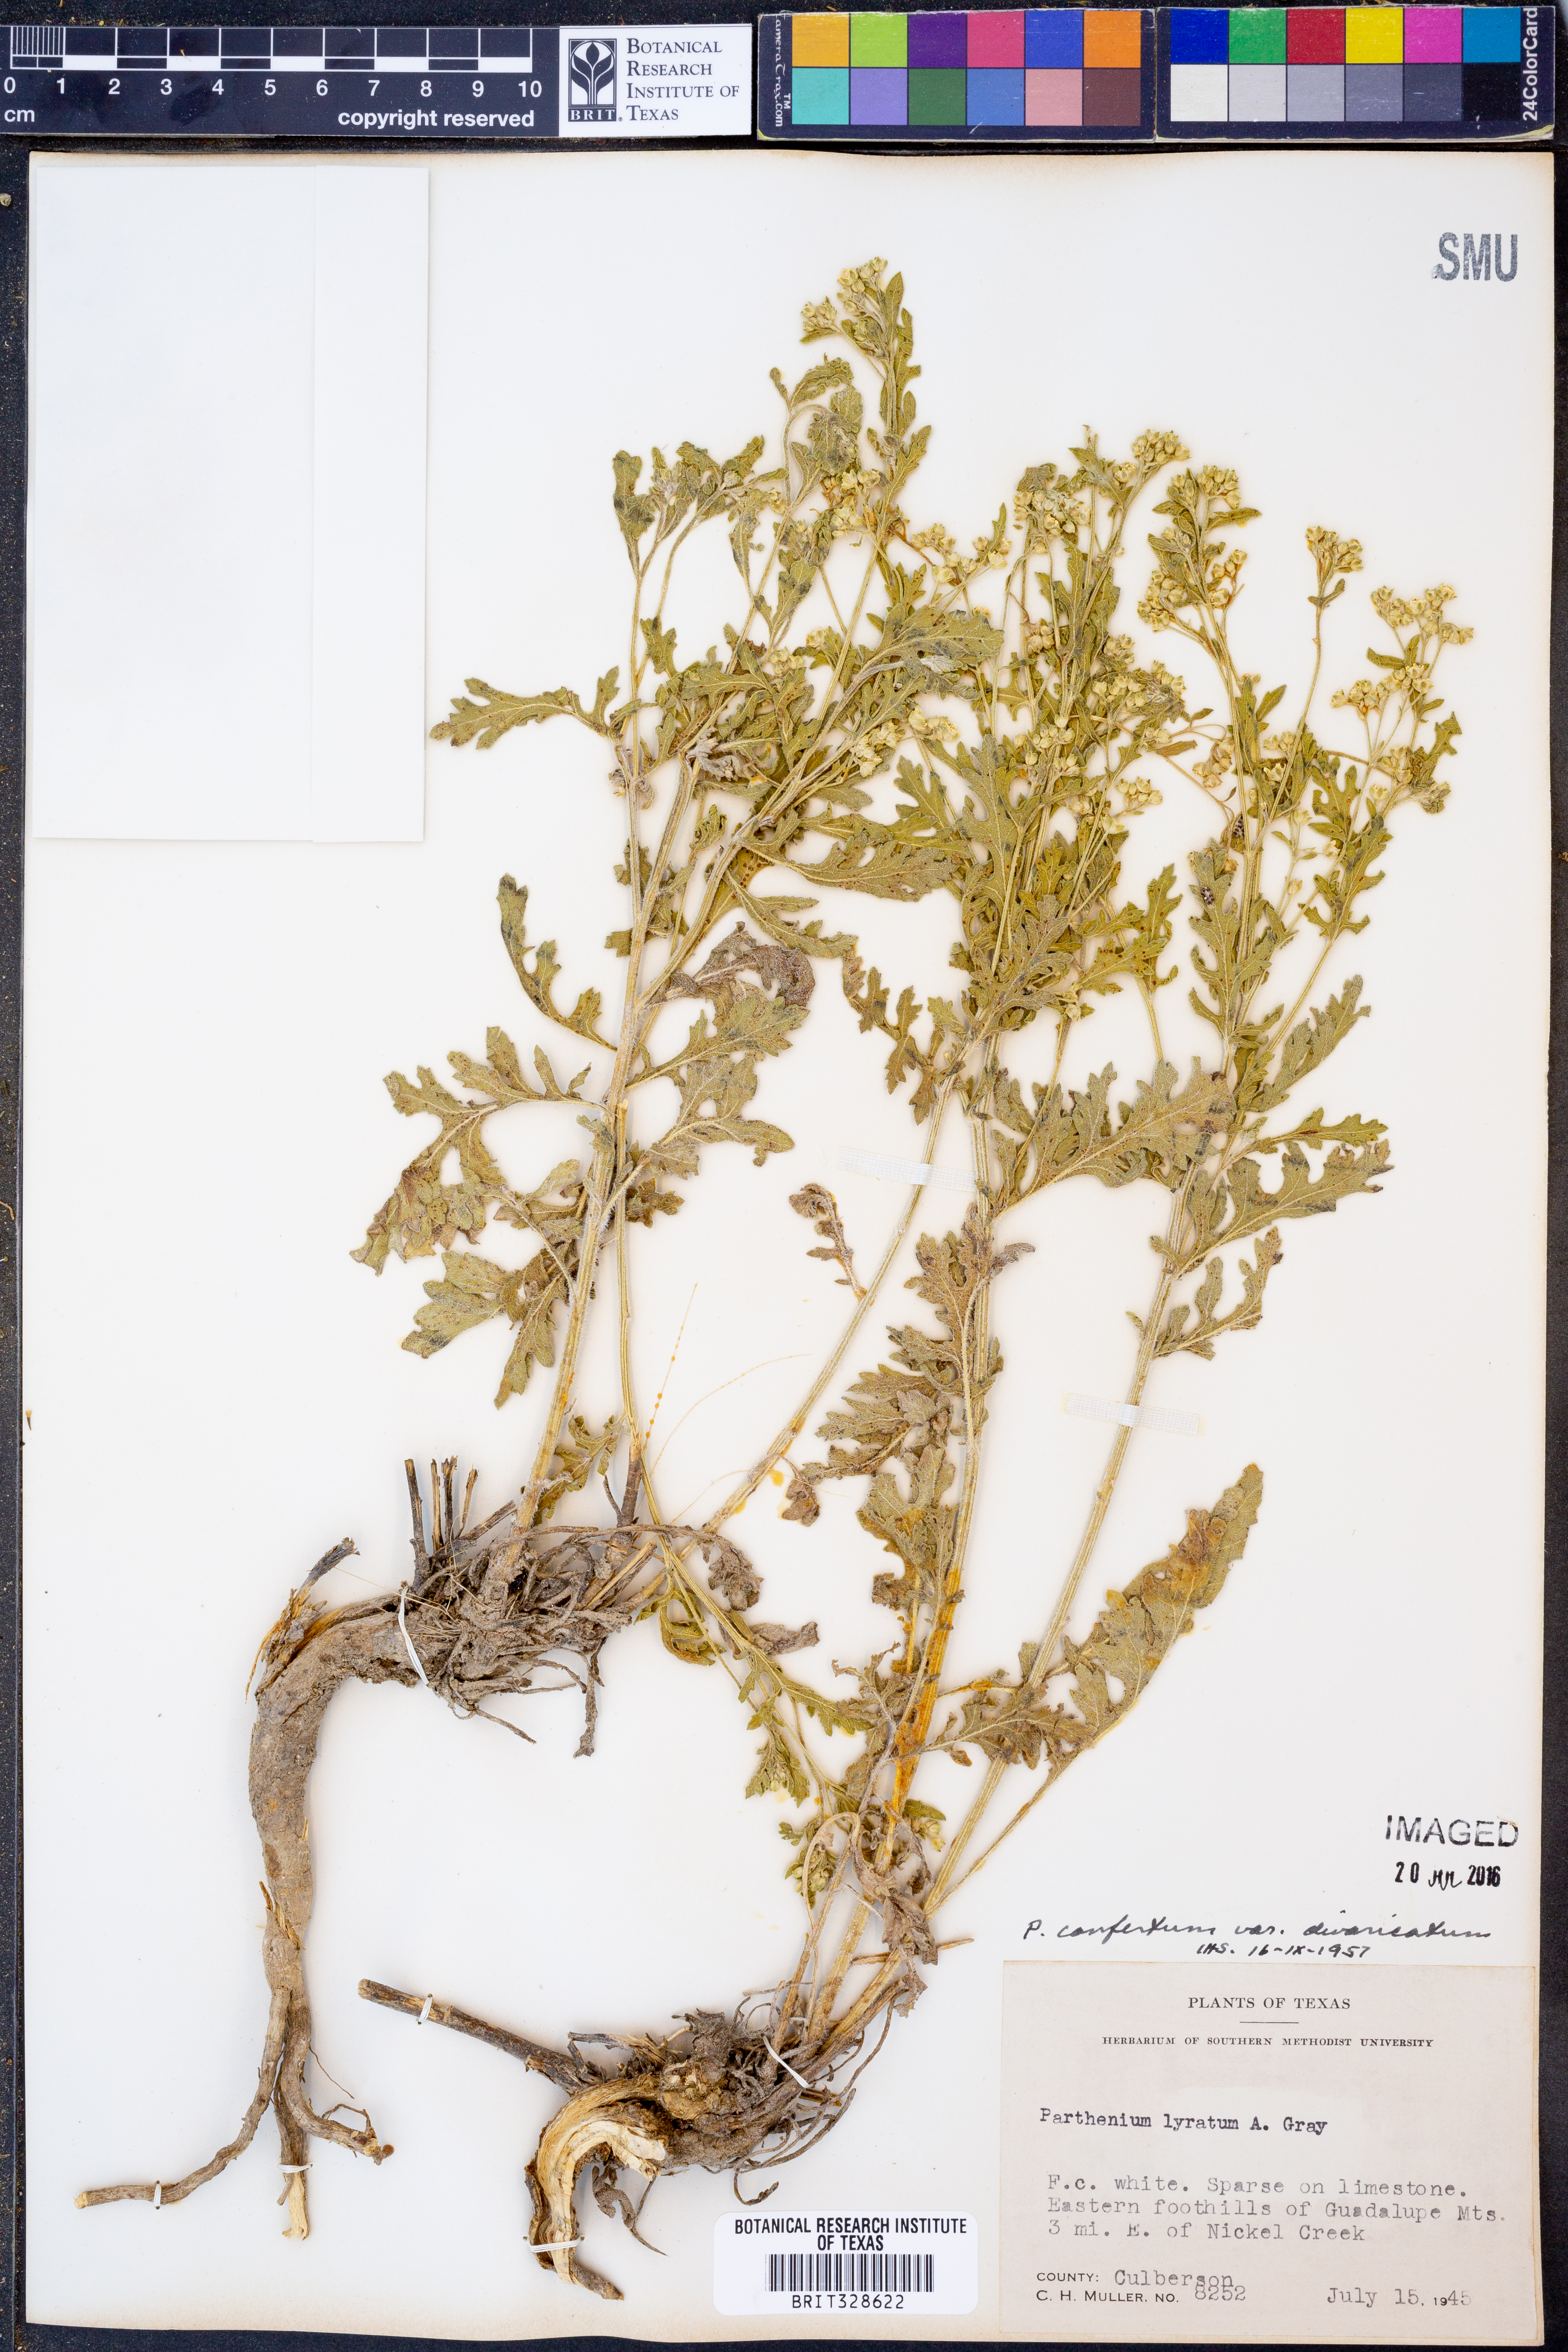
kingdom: Plantae
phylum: Tracheophyta
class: Magnoliopsida
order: Asterales
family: Asteraceae
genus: Parthenium
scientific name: Parthenium confertum
